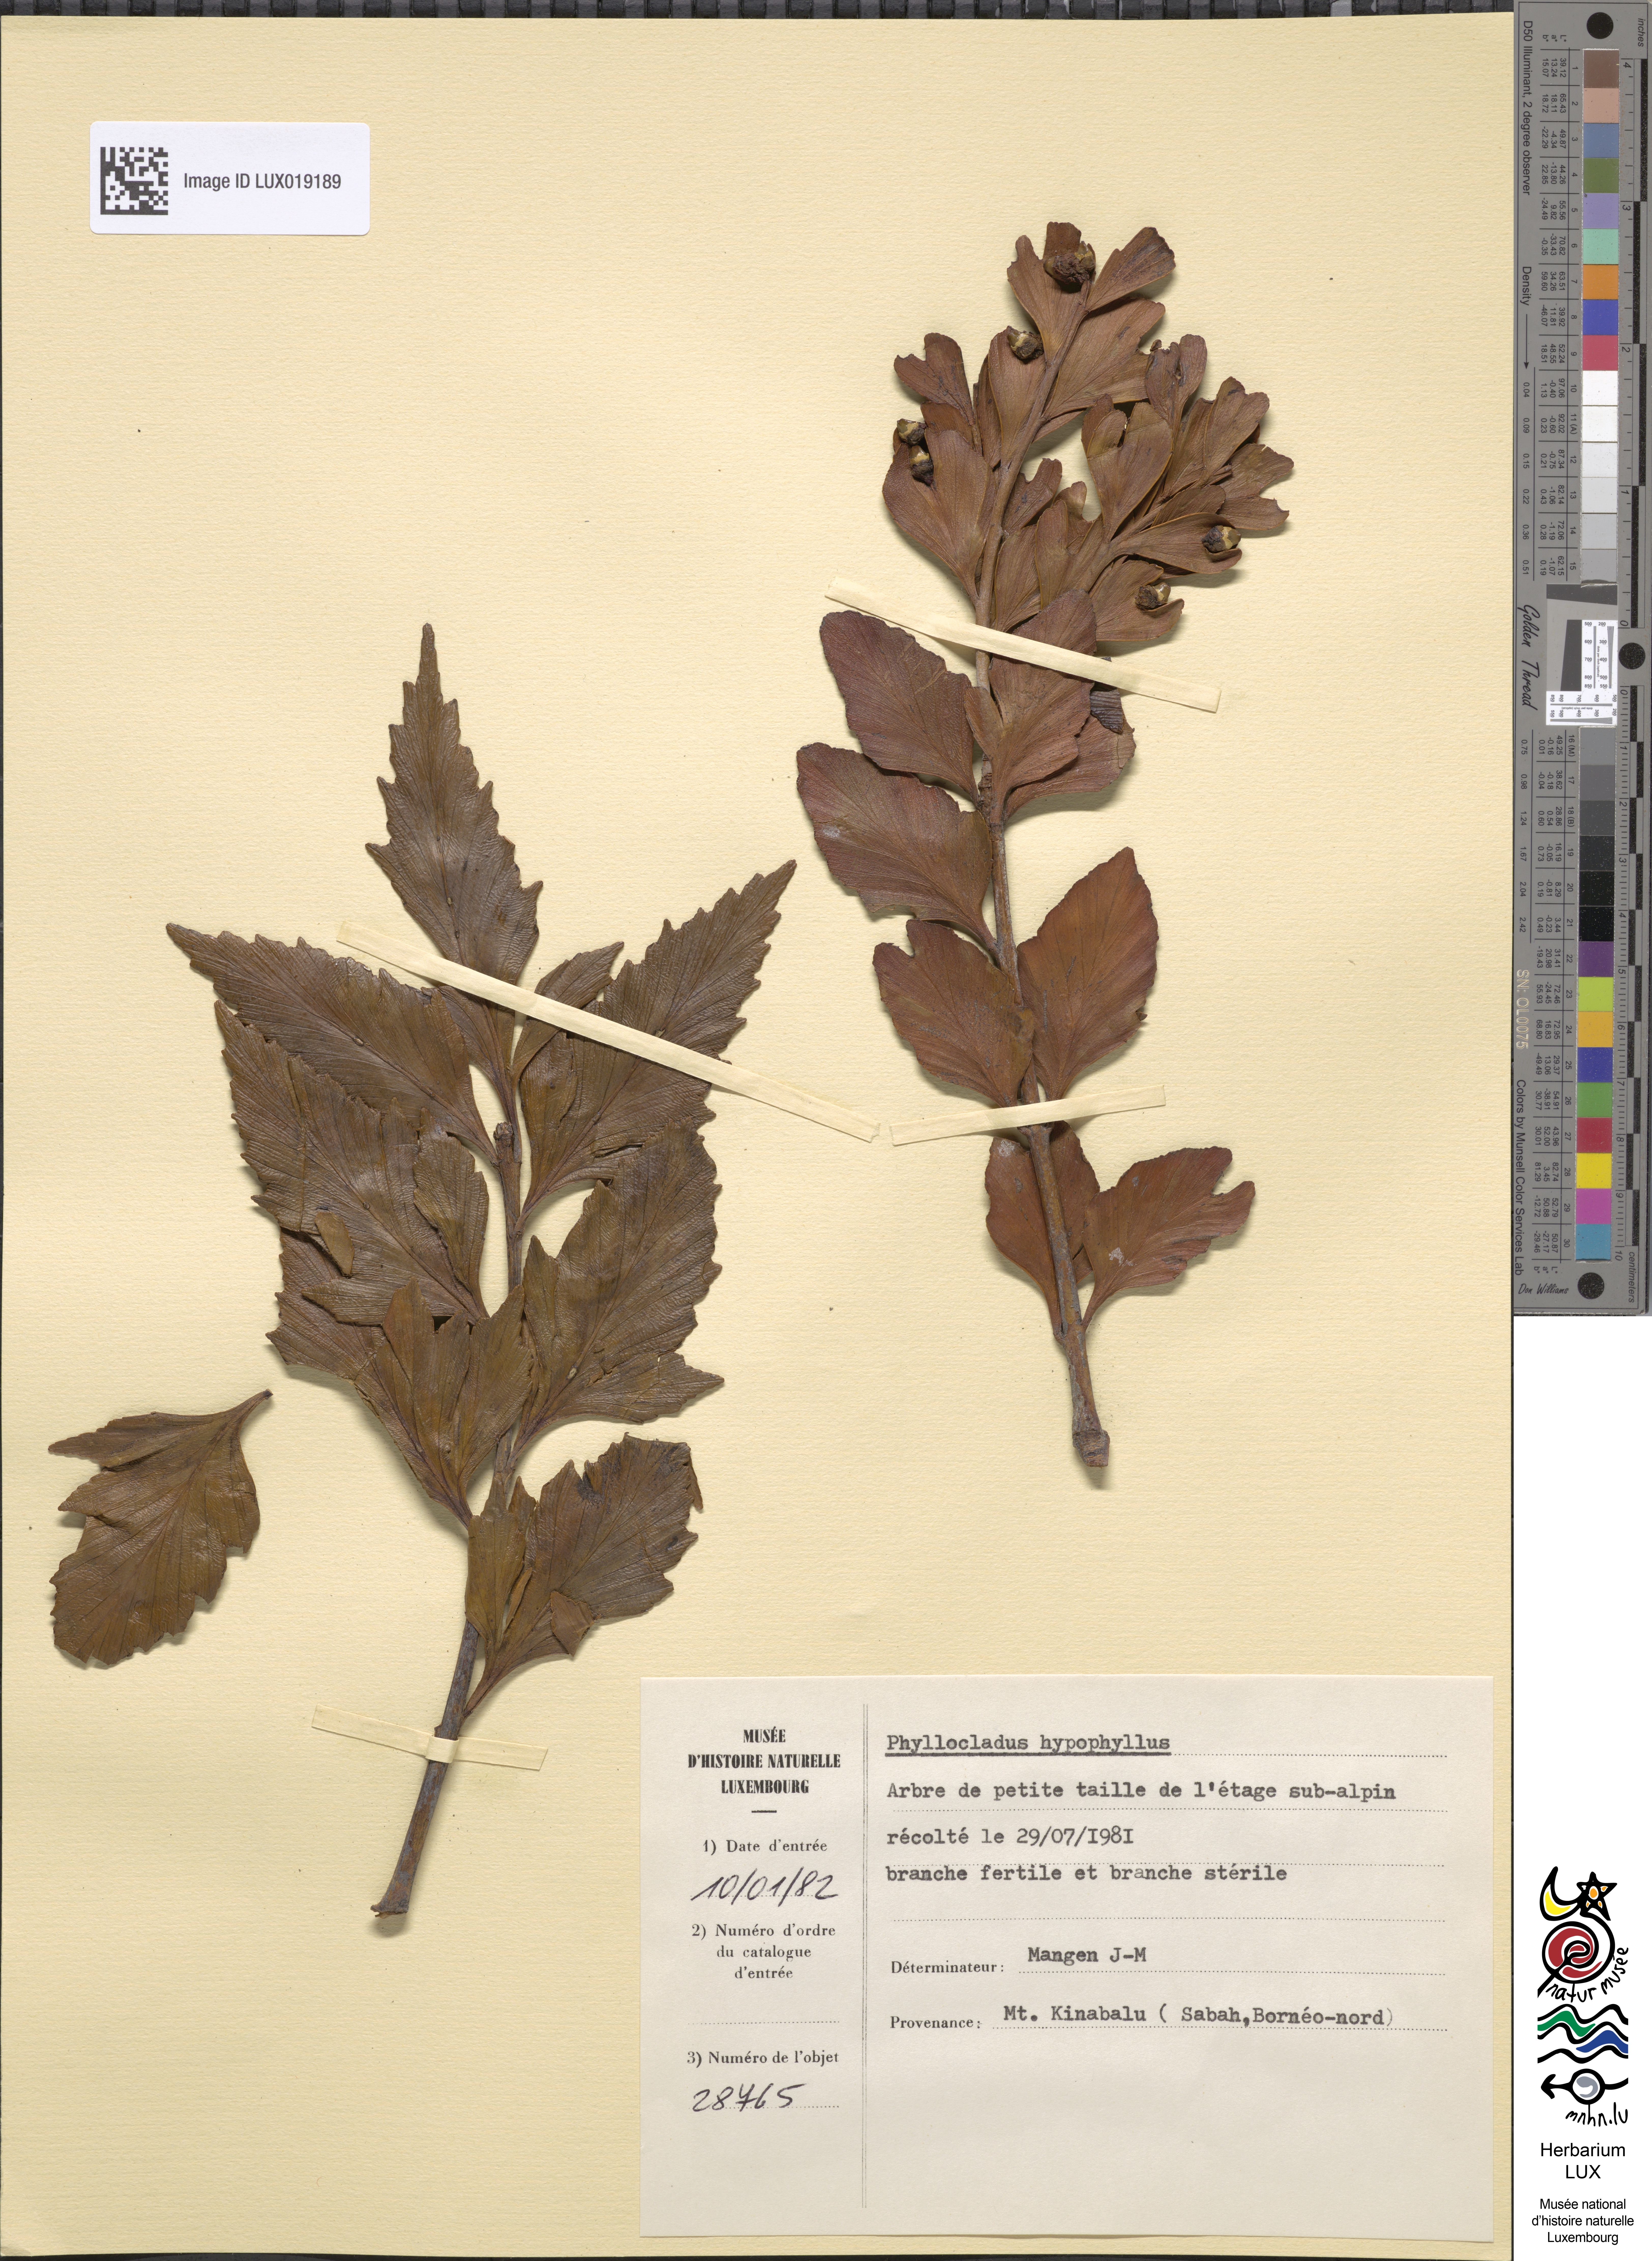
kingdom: Plantae
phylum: Tracheophyta
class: Pinopsida
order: Pinales
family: Phyllocladaceae
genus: Phyllocladus
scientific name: Phyllocladus hypophyllus
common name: Celery pine
